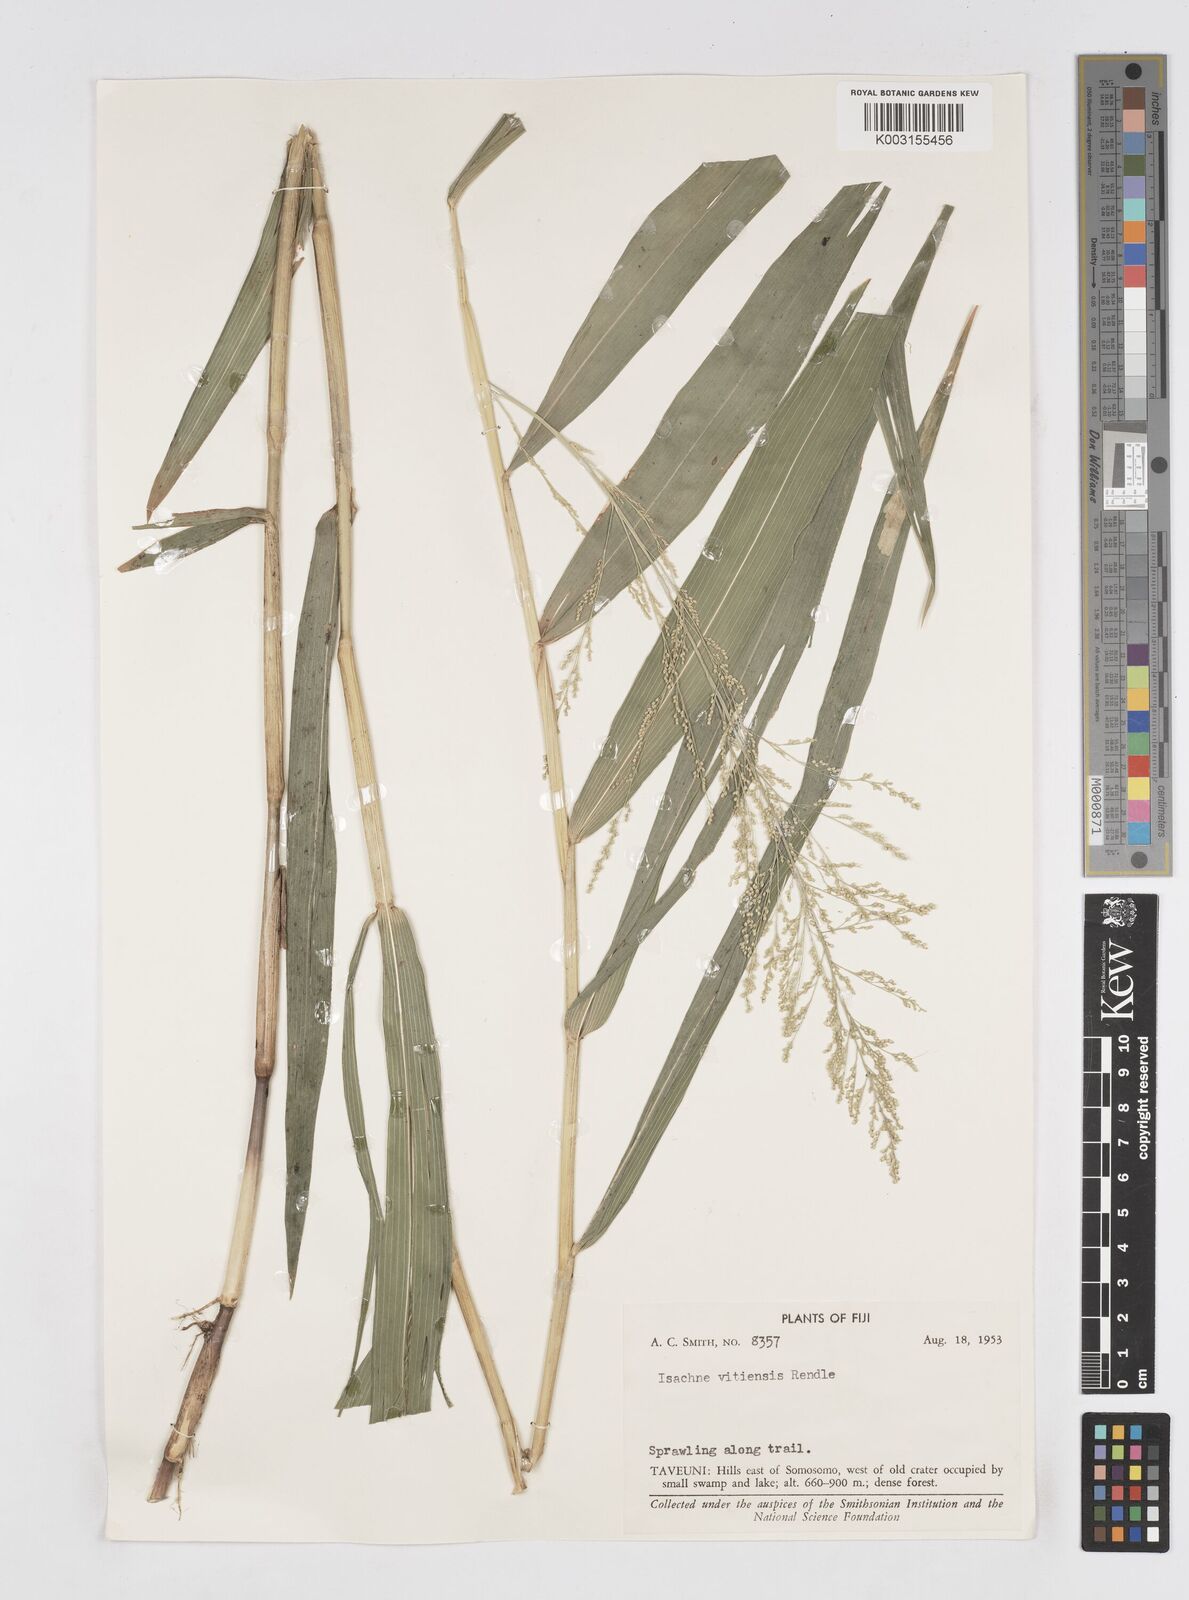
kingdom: Plantae
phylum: Tracheophyta
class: Liliopsida
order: Poales
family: Poaceae
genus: Isachne
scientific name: Isachne vitiensis
